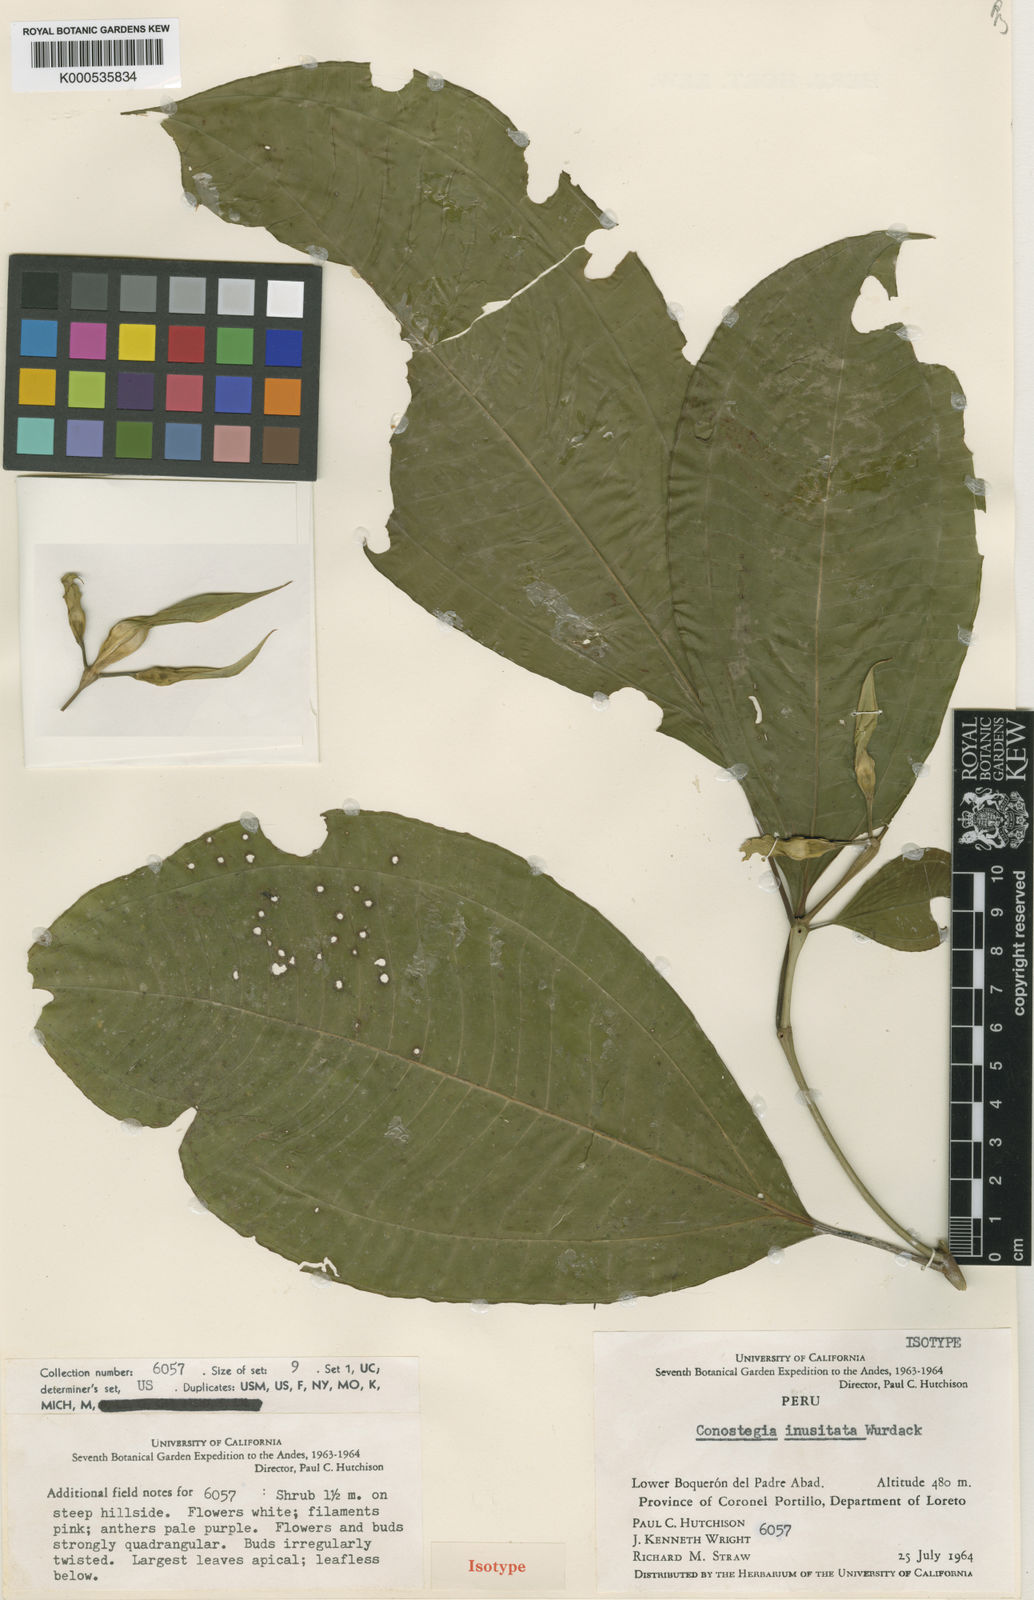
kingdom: Plantae
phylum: Tracheophyta
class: Magnoliopsida
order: Myrtales
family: Melastomataceae
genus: Miconia
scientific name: Miconia inusitata
